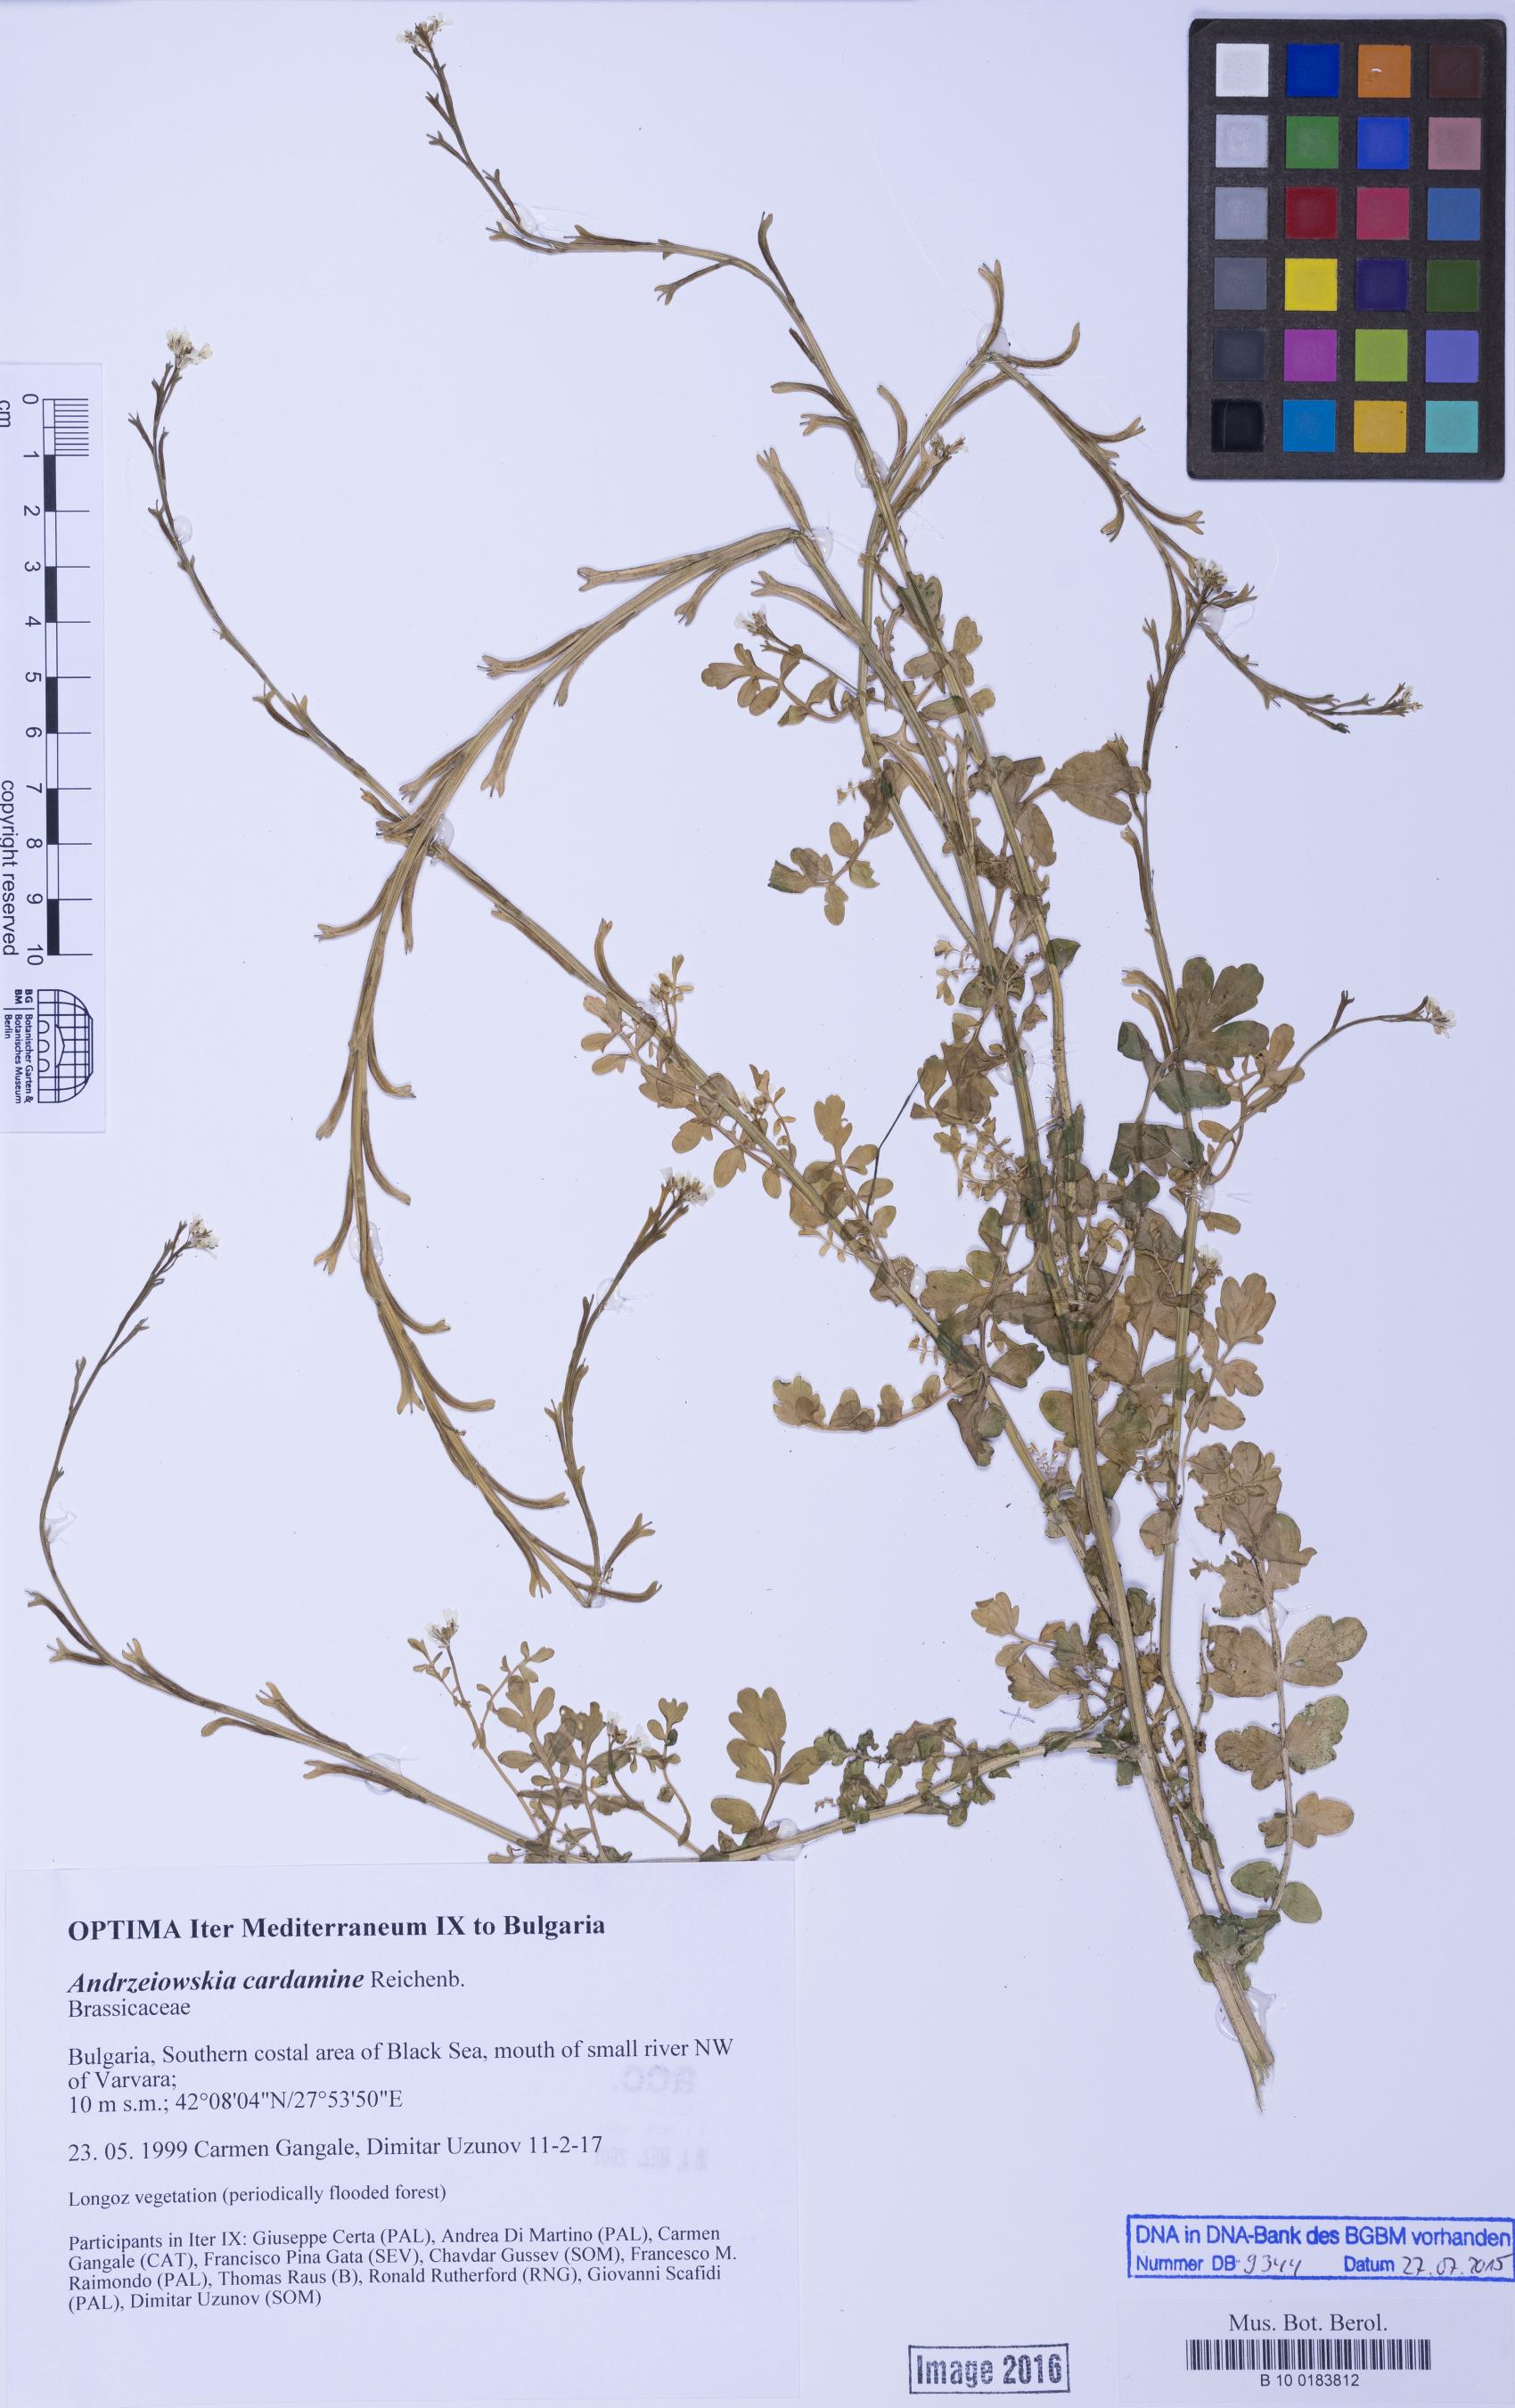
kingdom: Plantae
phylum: Tracheophyta
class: Magnoliopsida
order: Brassicales
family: Brassicaceae
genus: Andrzeiowskia
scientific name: Andrzeiowskia cardamine
